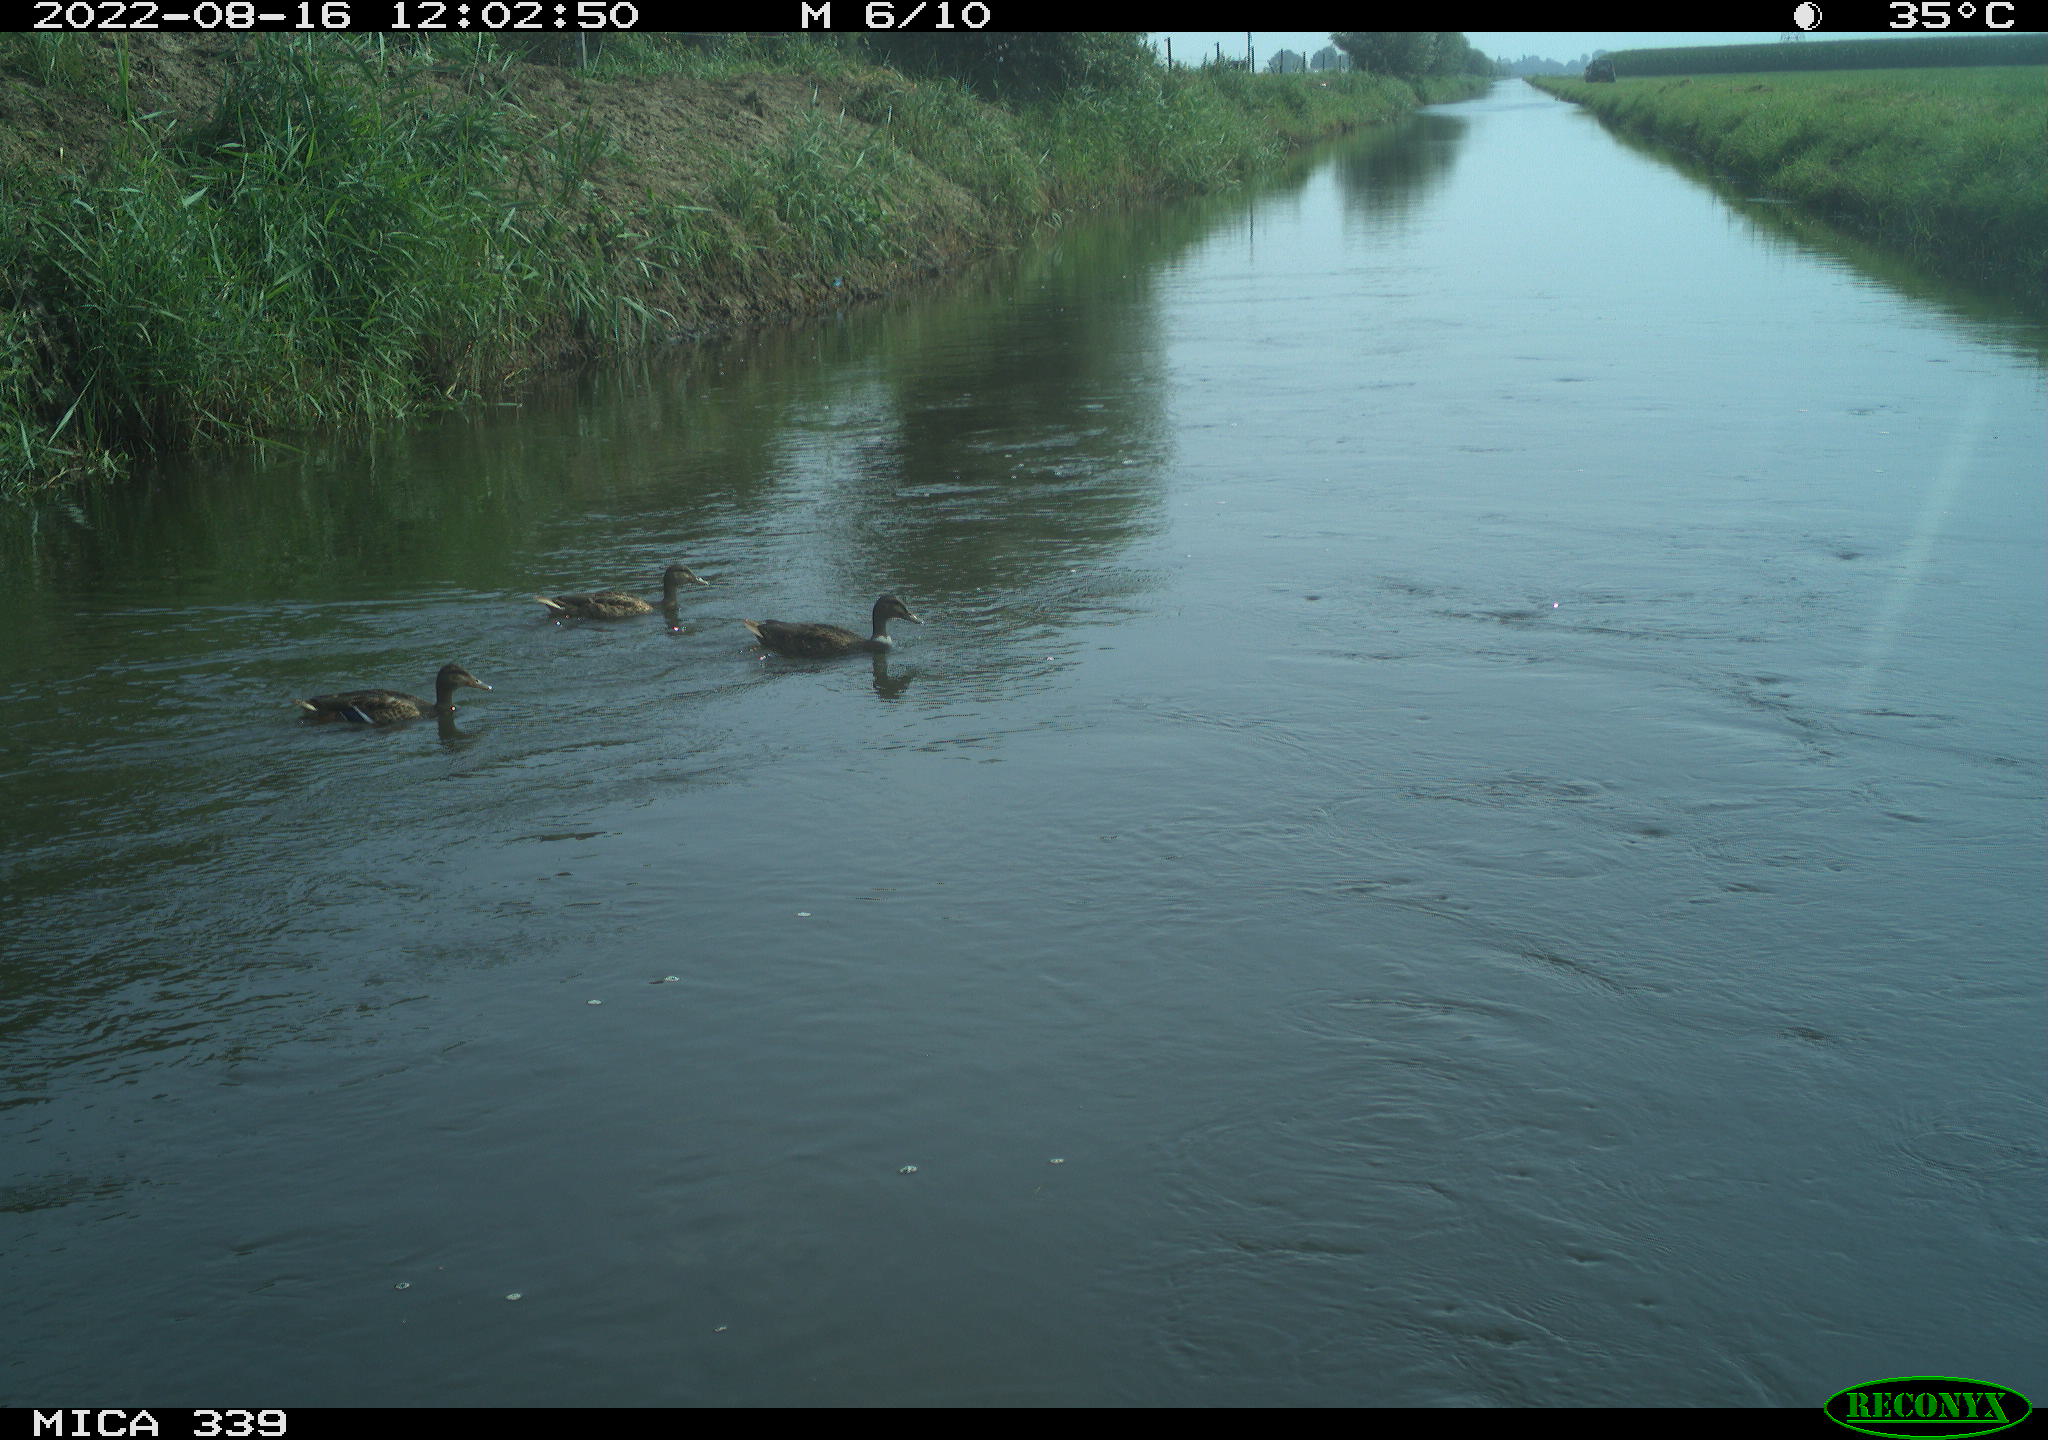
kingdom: Animalia
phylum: Chordata
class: Aves
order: Anseriformes
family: Anatidae
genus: Anas
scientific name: Anas platyrhynchos
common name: Mallard
